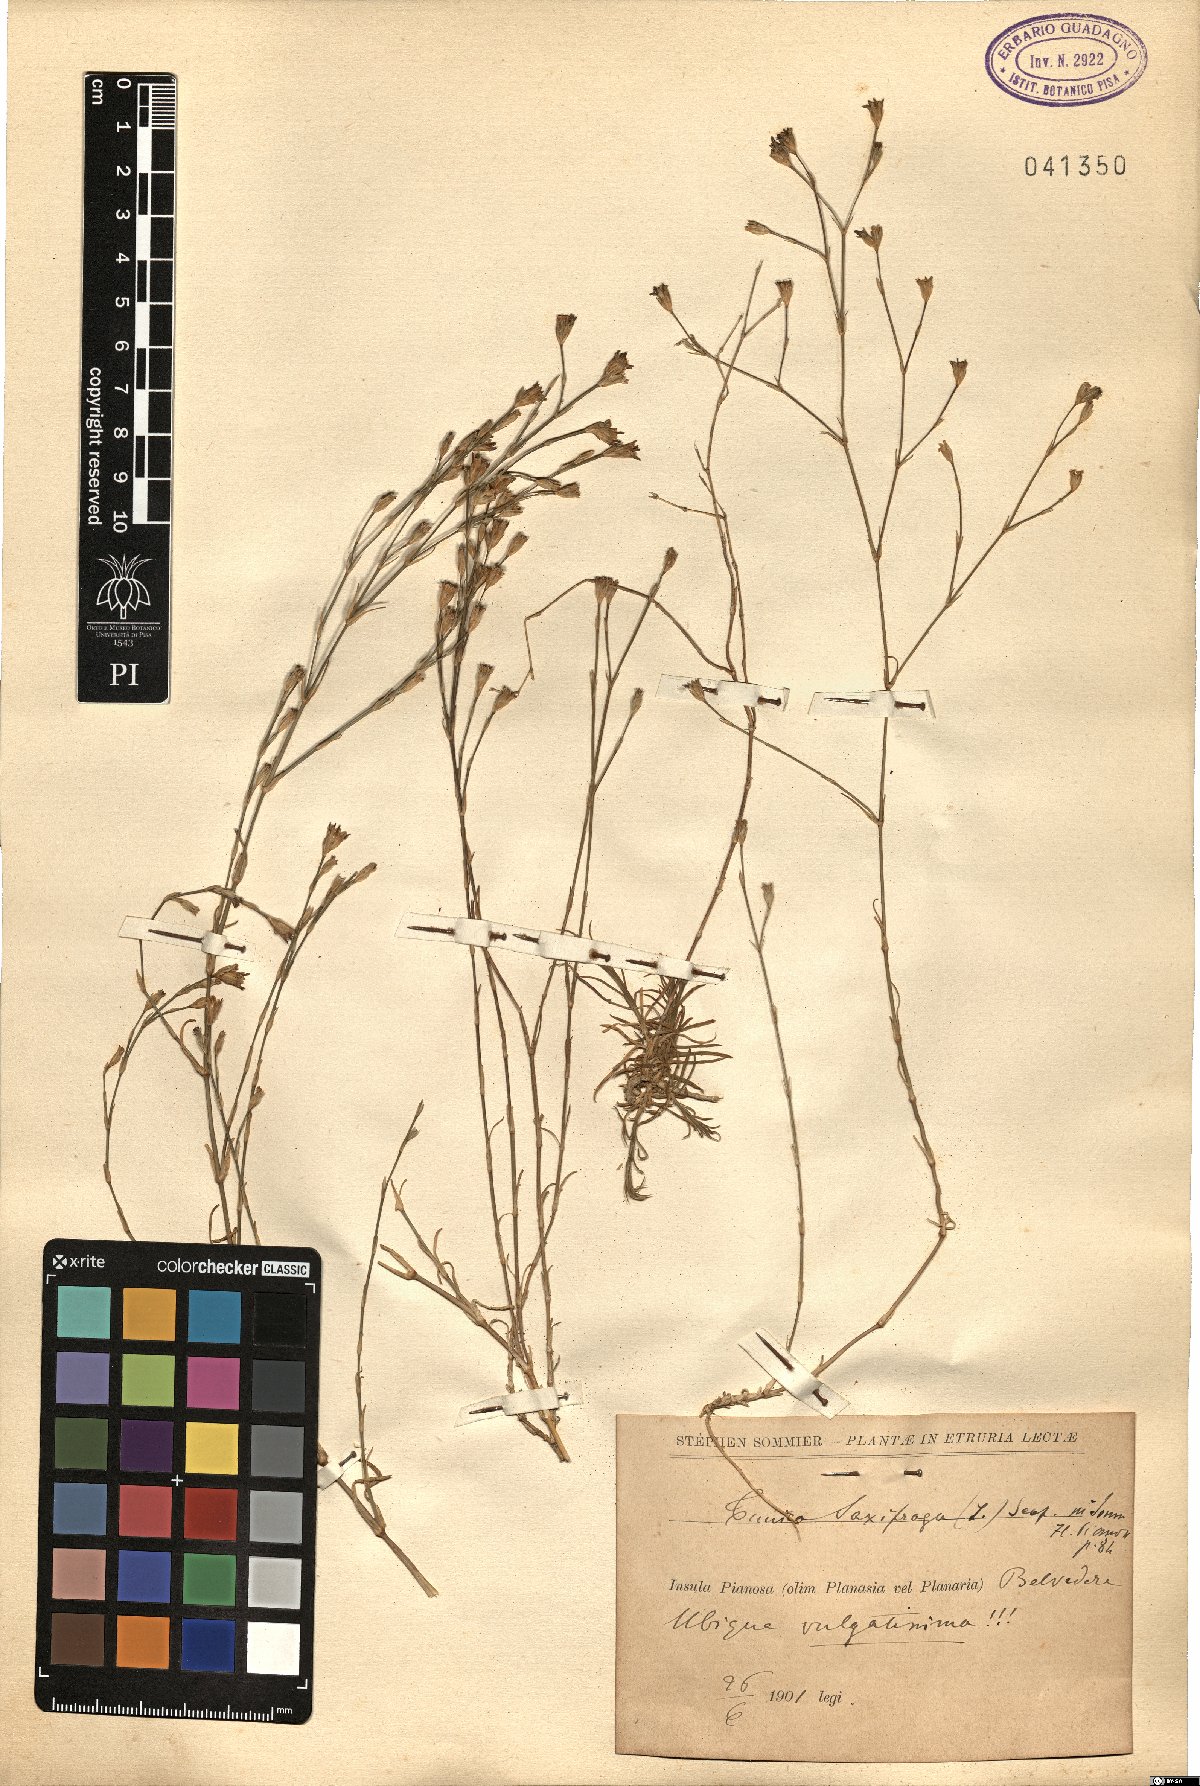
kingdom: Plantae
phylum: Tracheophyta
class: Magnoliopsida
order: Caryophyllales
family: Caryophyllaceae
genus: Petrorhagia
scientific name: Petrorhagia saxifraga
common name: Tunicflower
